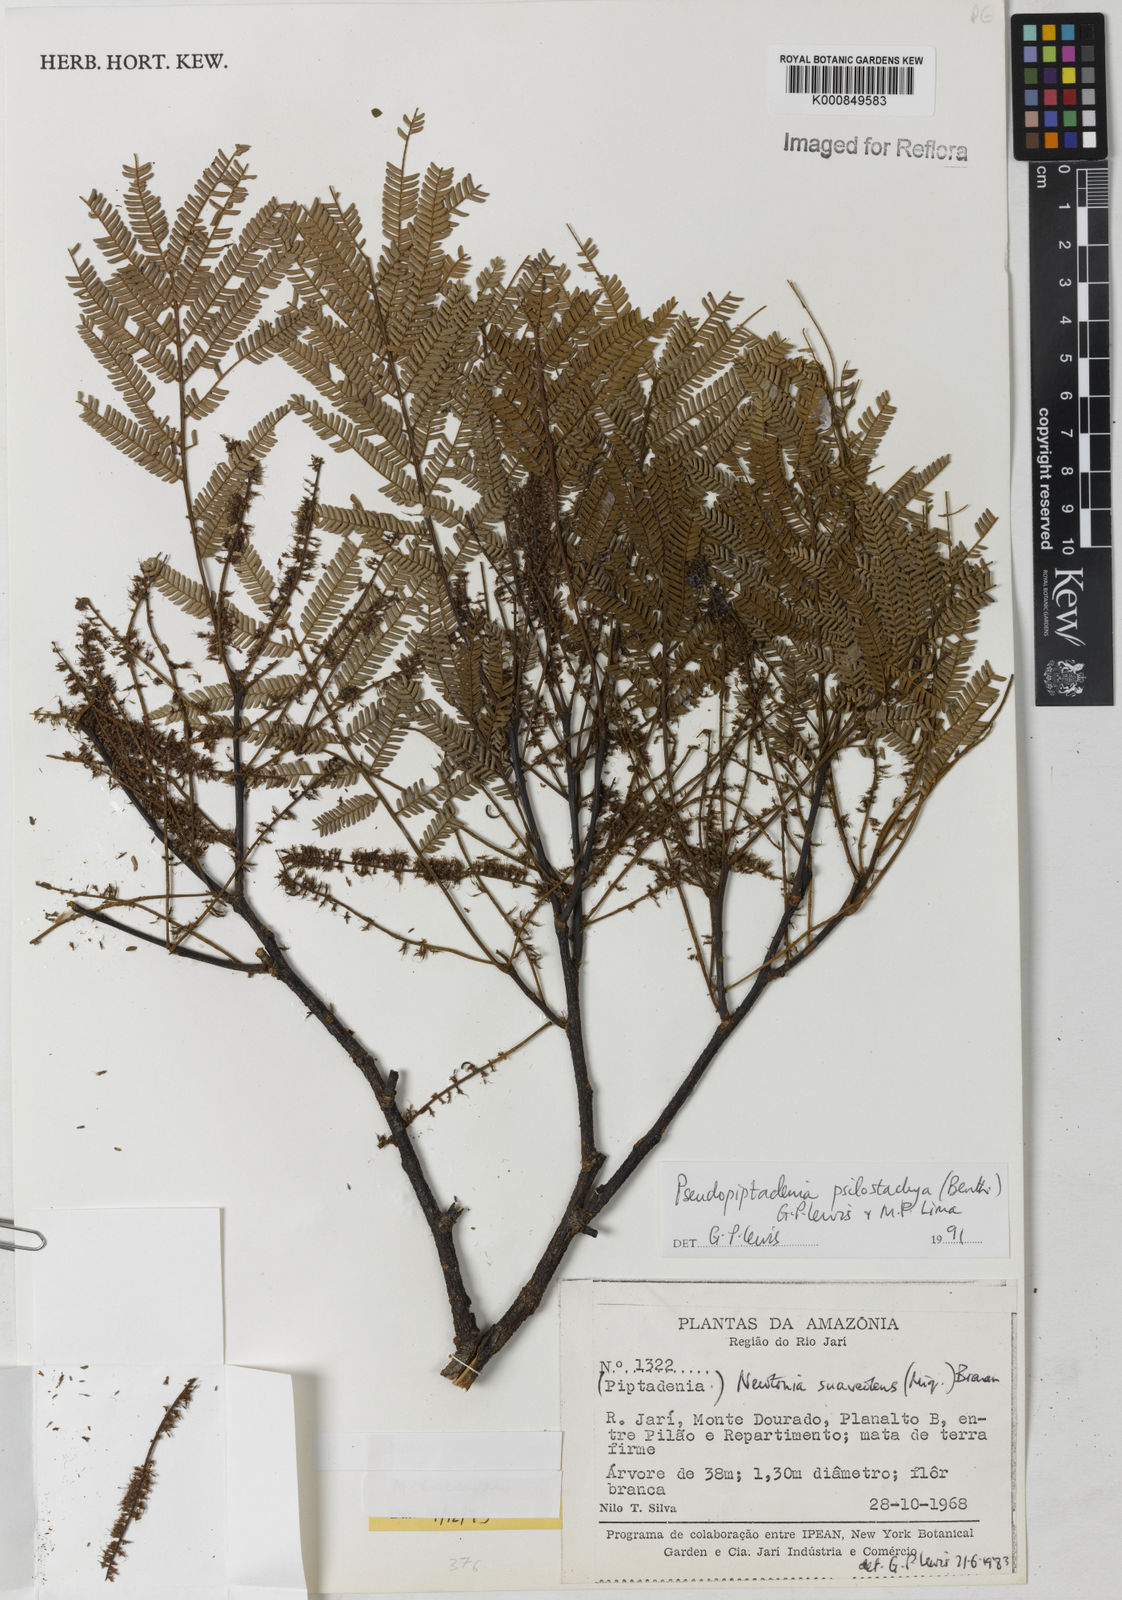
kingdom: Plantae
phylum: Tracheophyta
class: Magnoliopsida
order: Fabales
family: Fabaceae
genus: Pseudopiptadenia
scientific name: Pseudopiptadenia psilostachya
